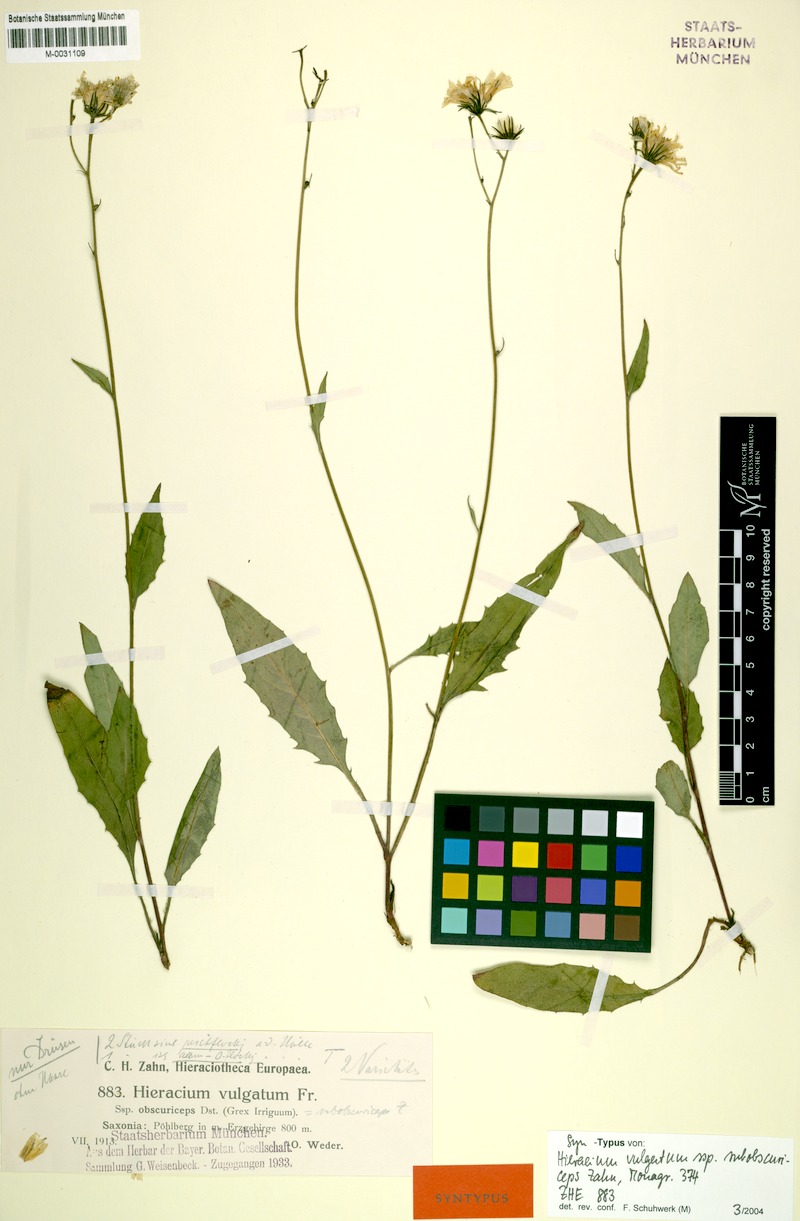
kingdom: Plantae
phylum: Tracheophyta
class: Magnoliopsida
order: Asterales
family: Asteraceae
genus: Hieracium
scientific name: Hieracium lachenalii
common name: Common hawkweed
